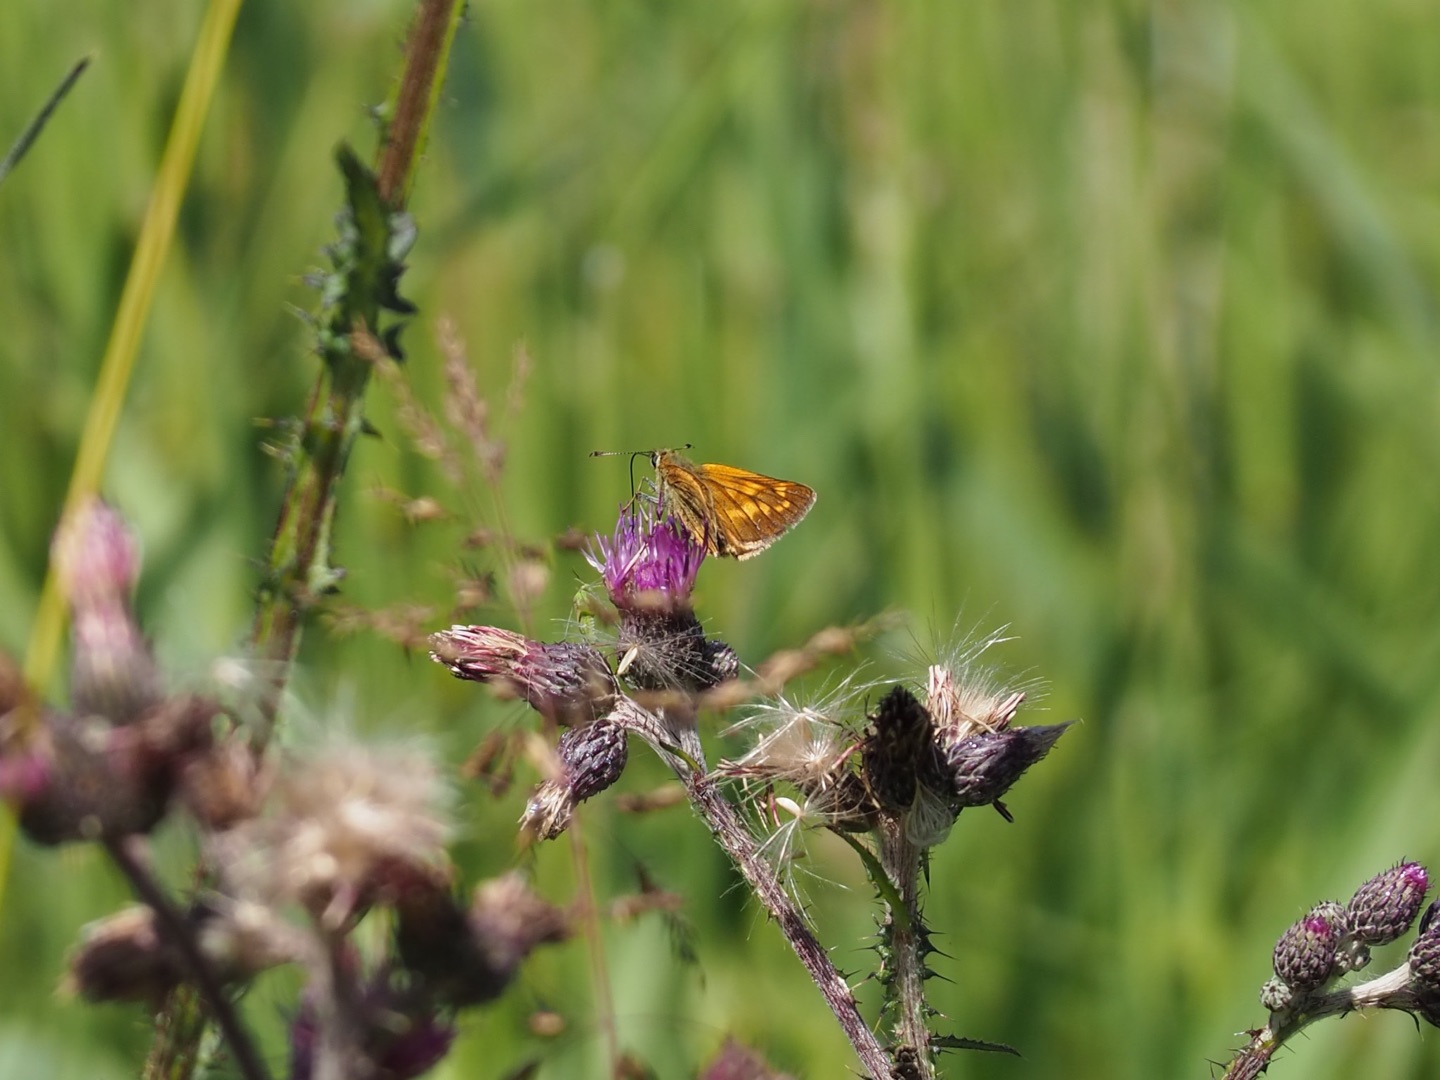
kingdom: Animalia
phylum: Arthropoda
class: Insecta
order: Lepidoptera
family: Hesperiidae
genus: Ochlodes
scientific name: Ochlodes venata
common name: Stor bredpande
